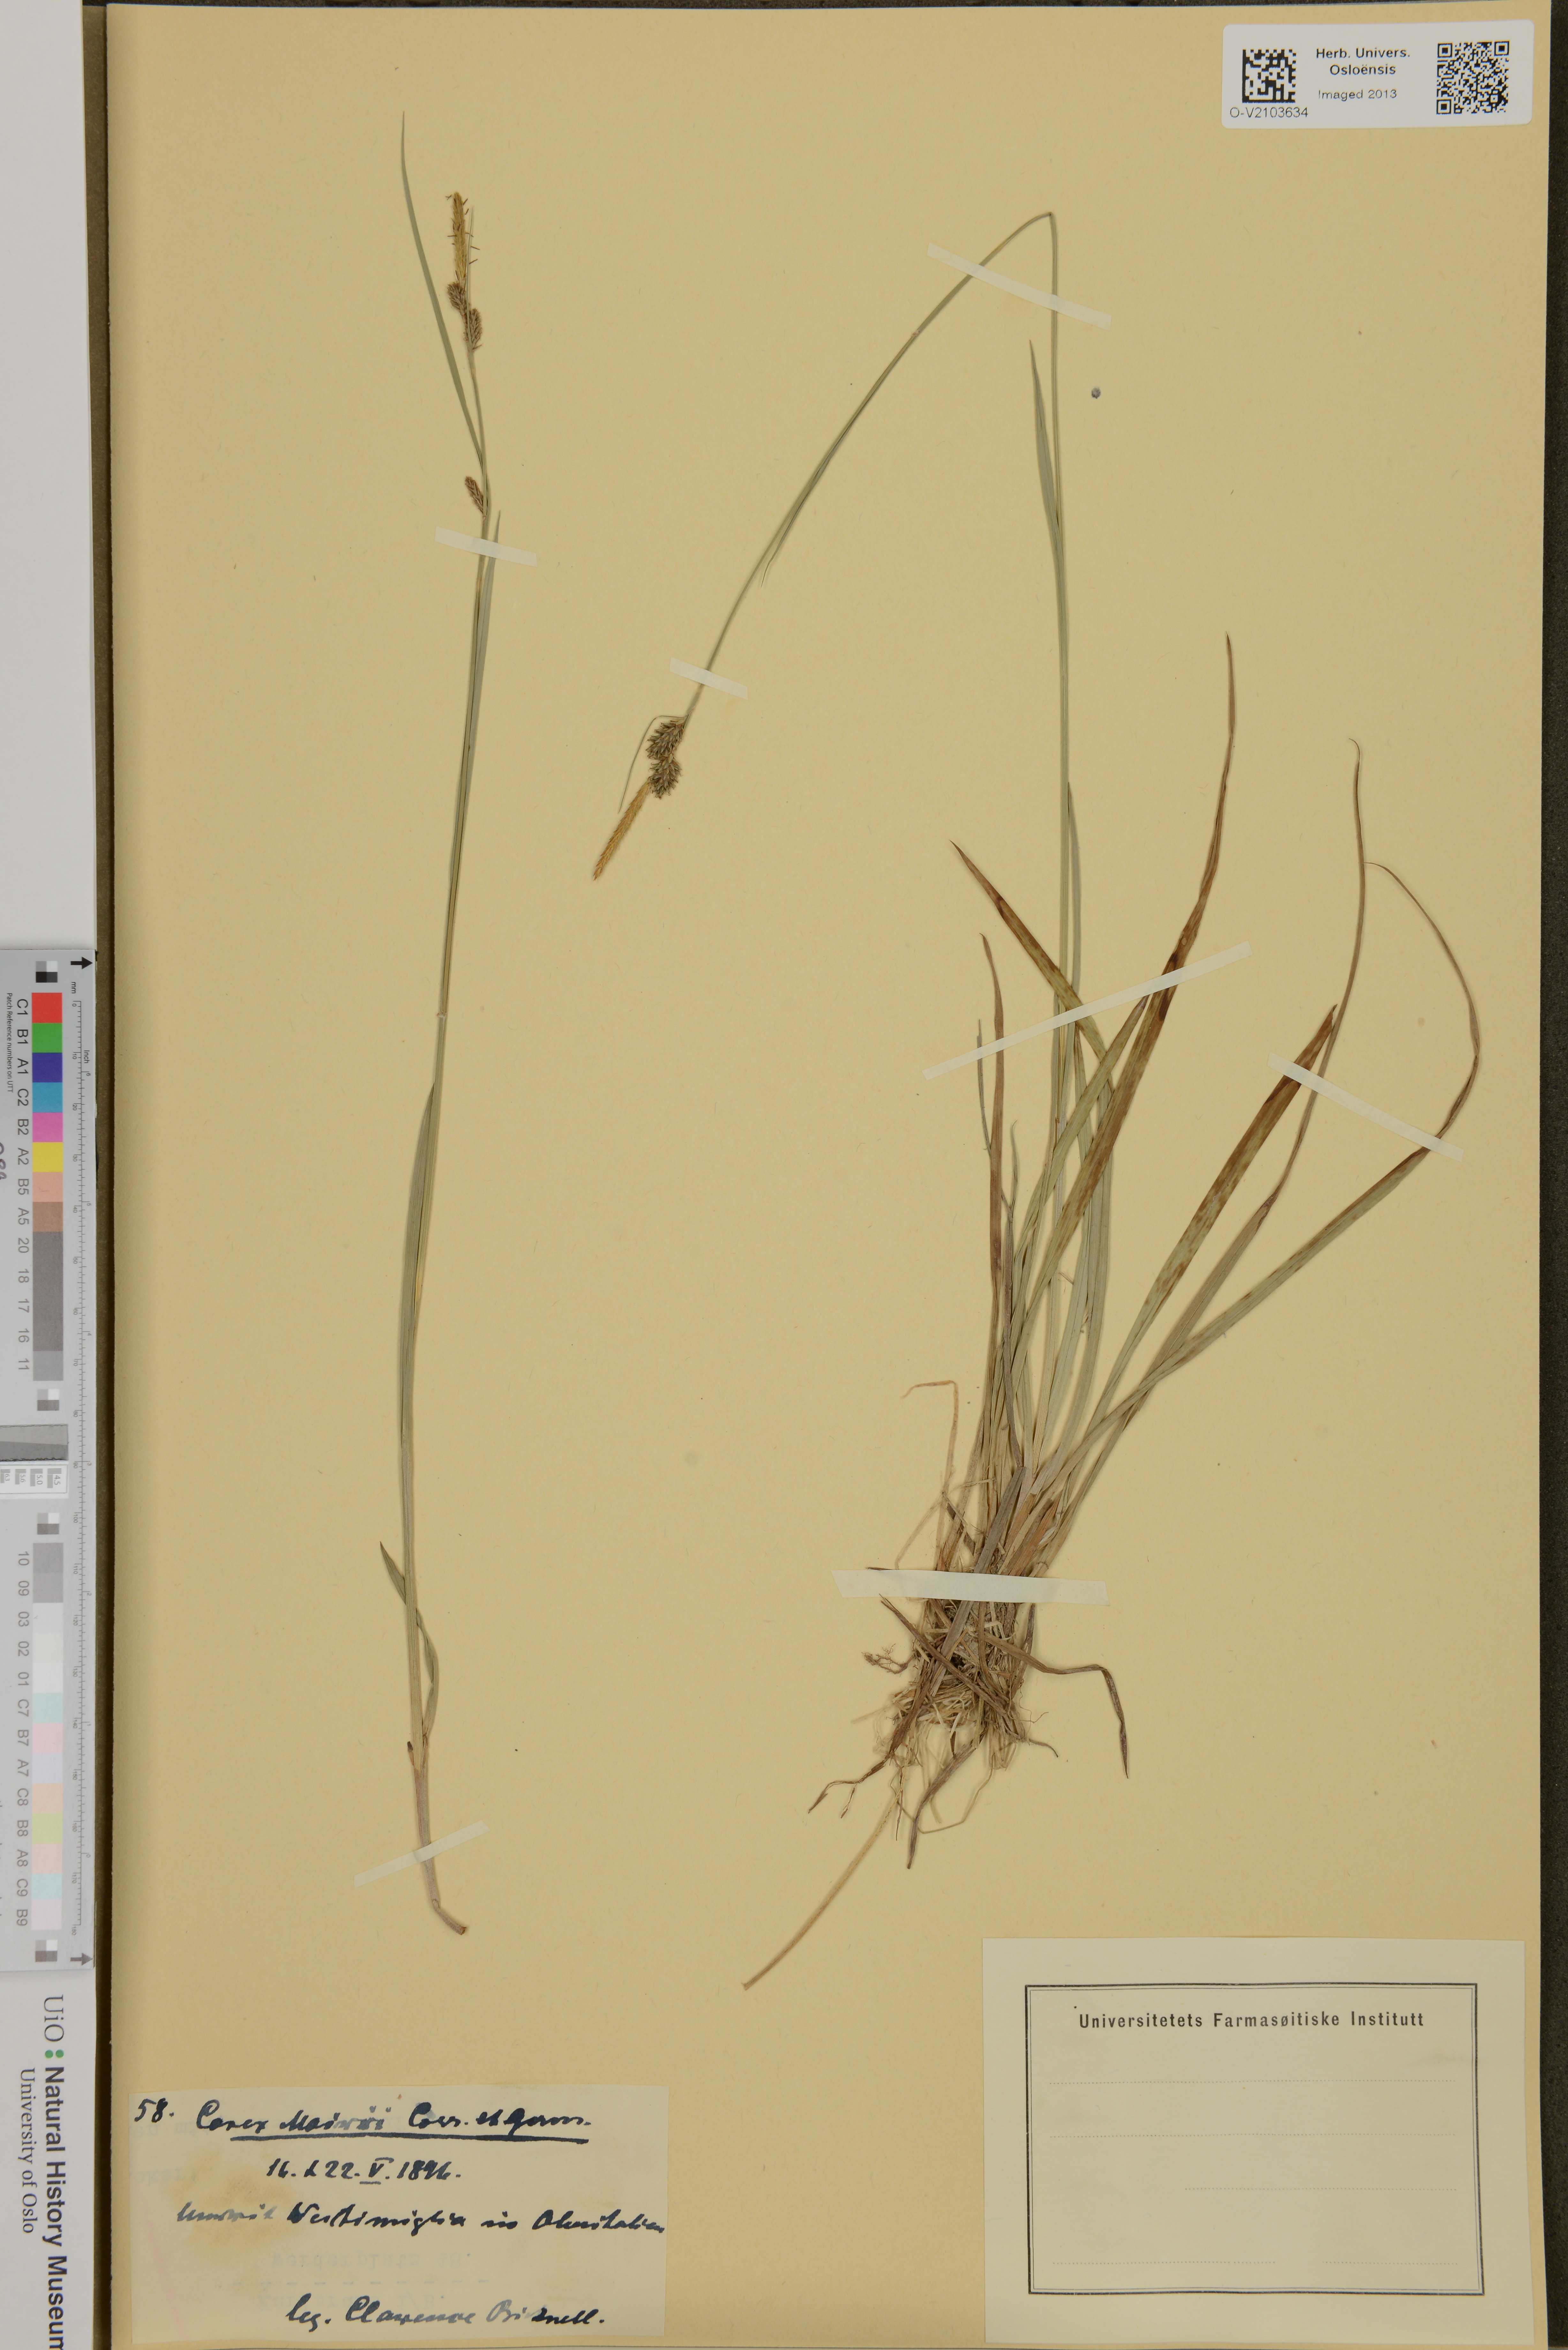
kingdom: Plantae
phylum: Tracheophyta
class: Liliopsida
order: Poales
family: Cyperaceae
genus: Carex
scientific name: Carex mairei
